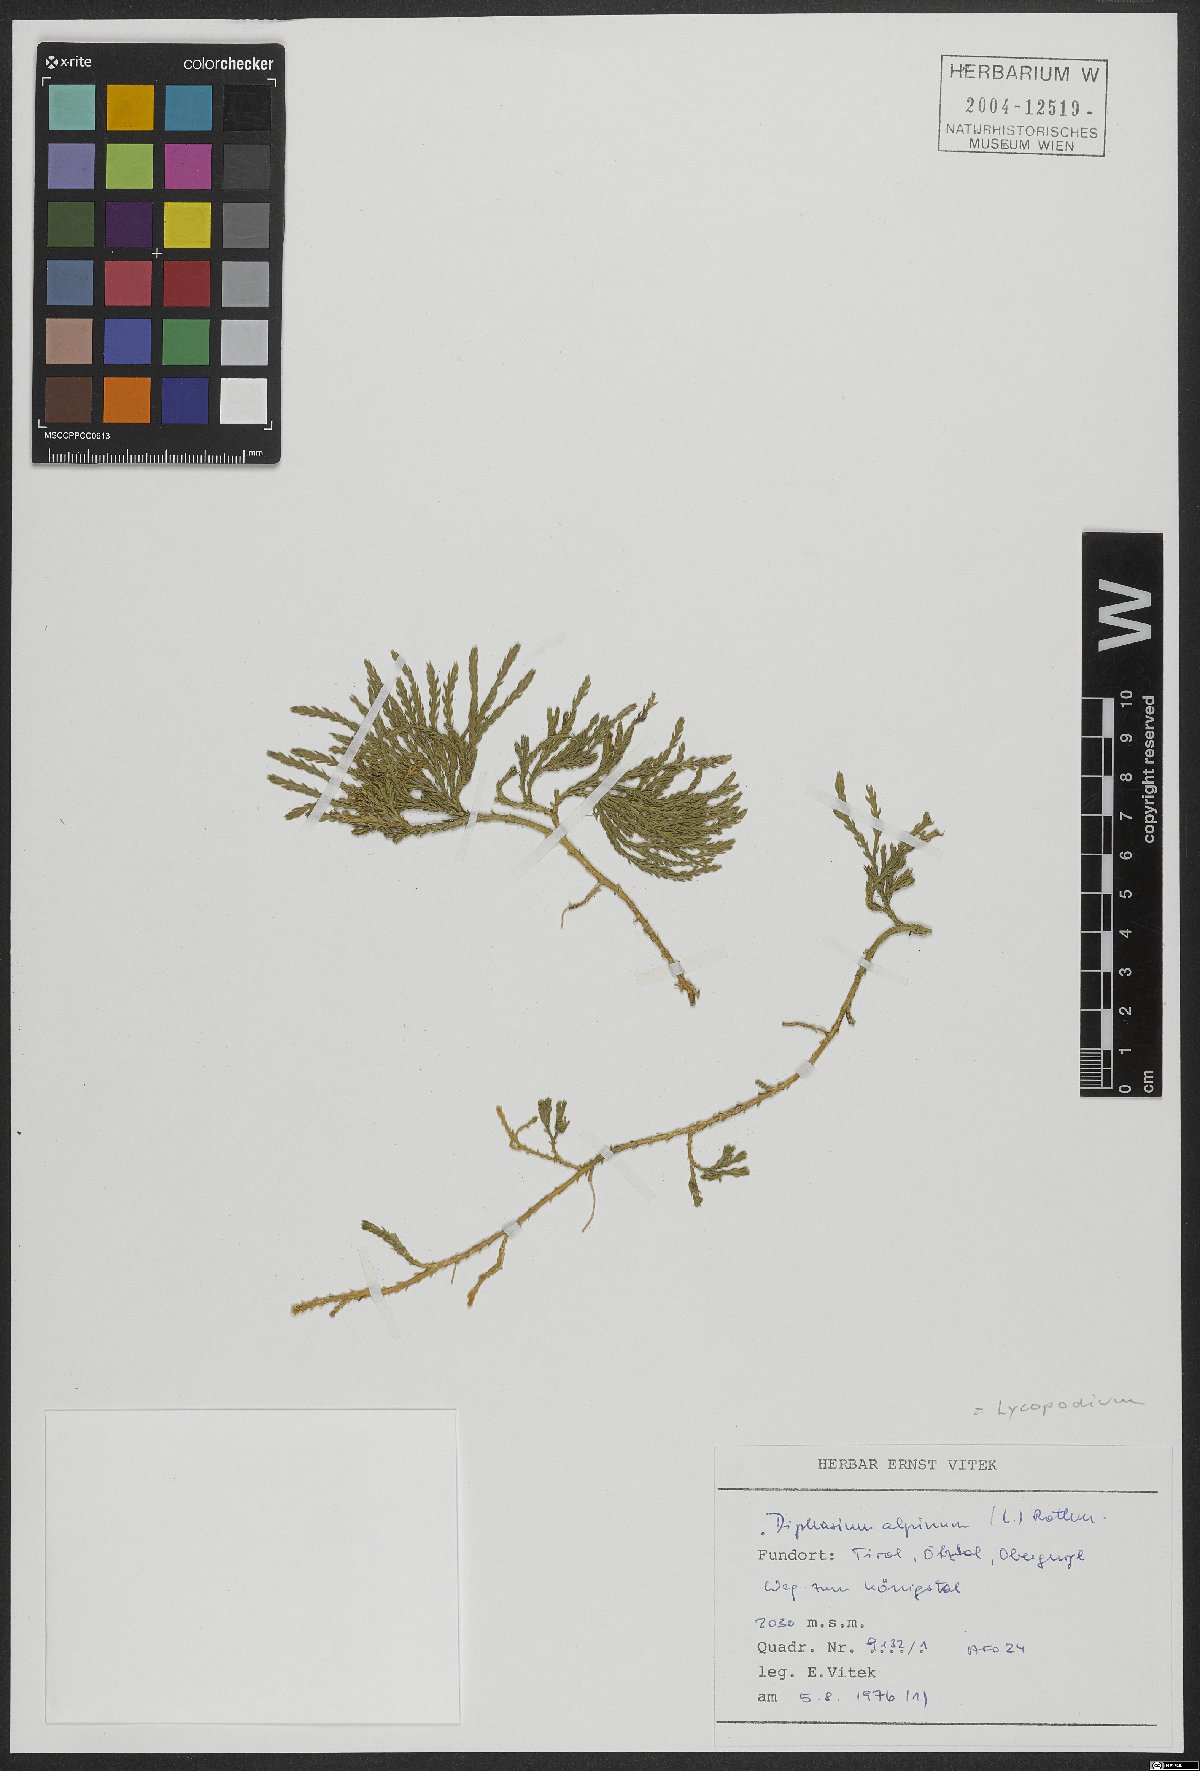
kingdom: Plantae
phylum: Tracheophyta
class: Lycopodiopsida
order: Lycopodiales
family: Lycopodiaceae
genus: Diphasiastrum
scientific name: Diphasiastrum alpinum
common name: Alpine clubmoss
